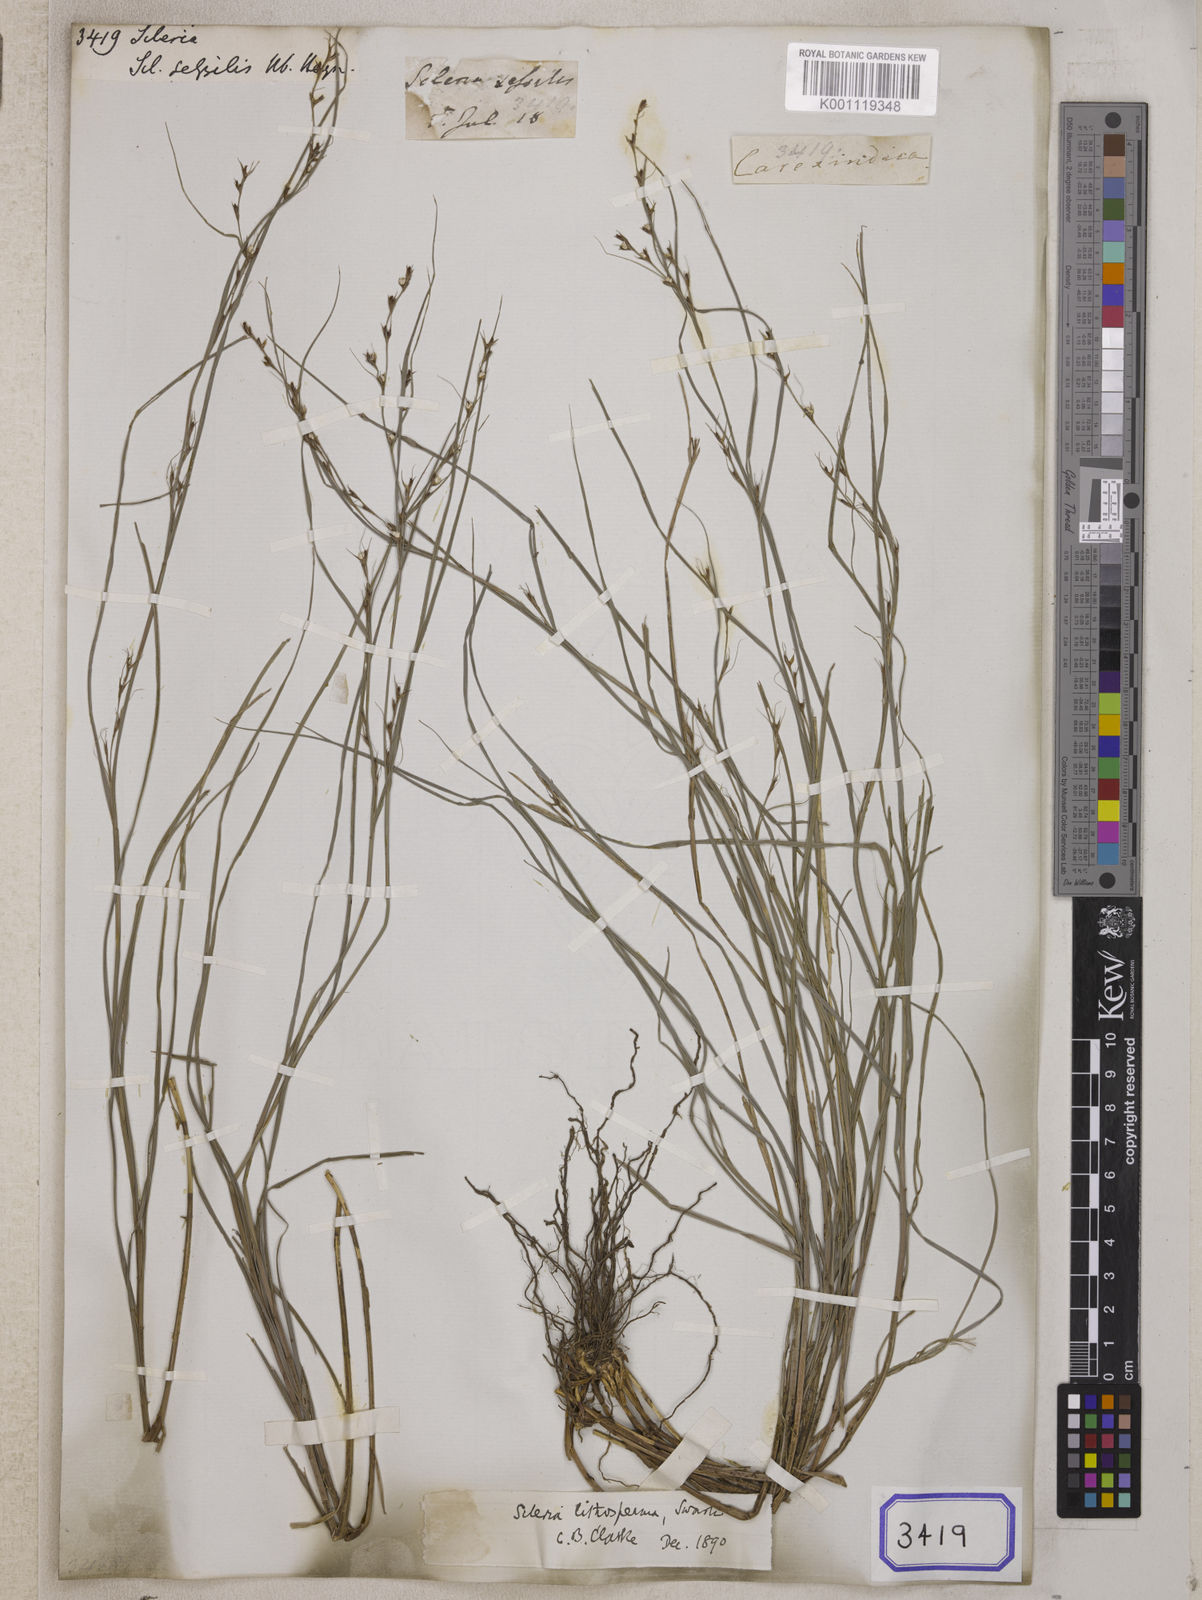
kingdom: Plantae
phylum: Tracheophyta
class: Liliopsida
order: Poales
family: Cyperaceae
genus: Scleria
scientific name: Scleria
